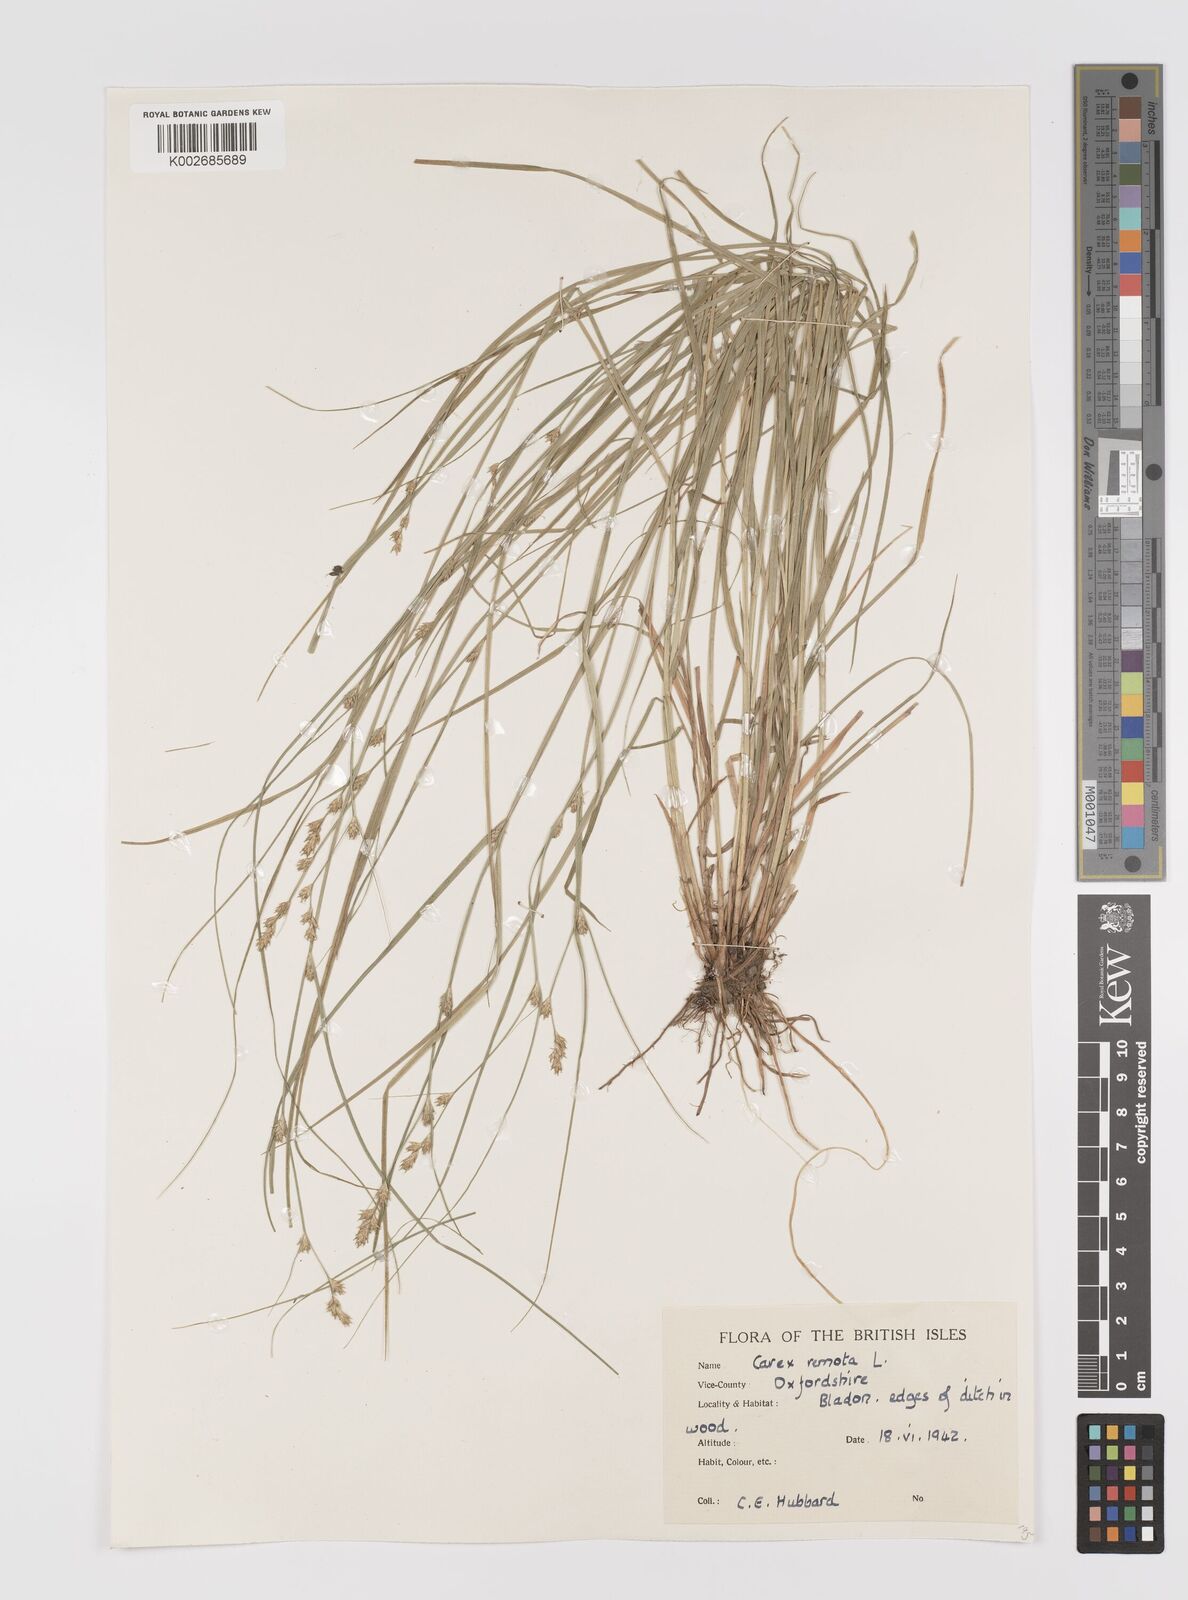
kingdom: Plantae
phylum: Tracheophyta
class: Liliopsida
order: Poales
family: Cyperaceae
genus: Carex
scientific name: Carex remota
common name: Remote sedge
